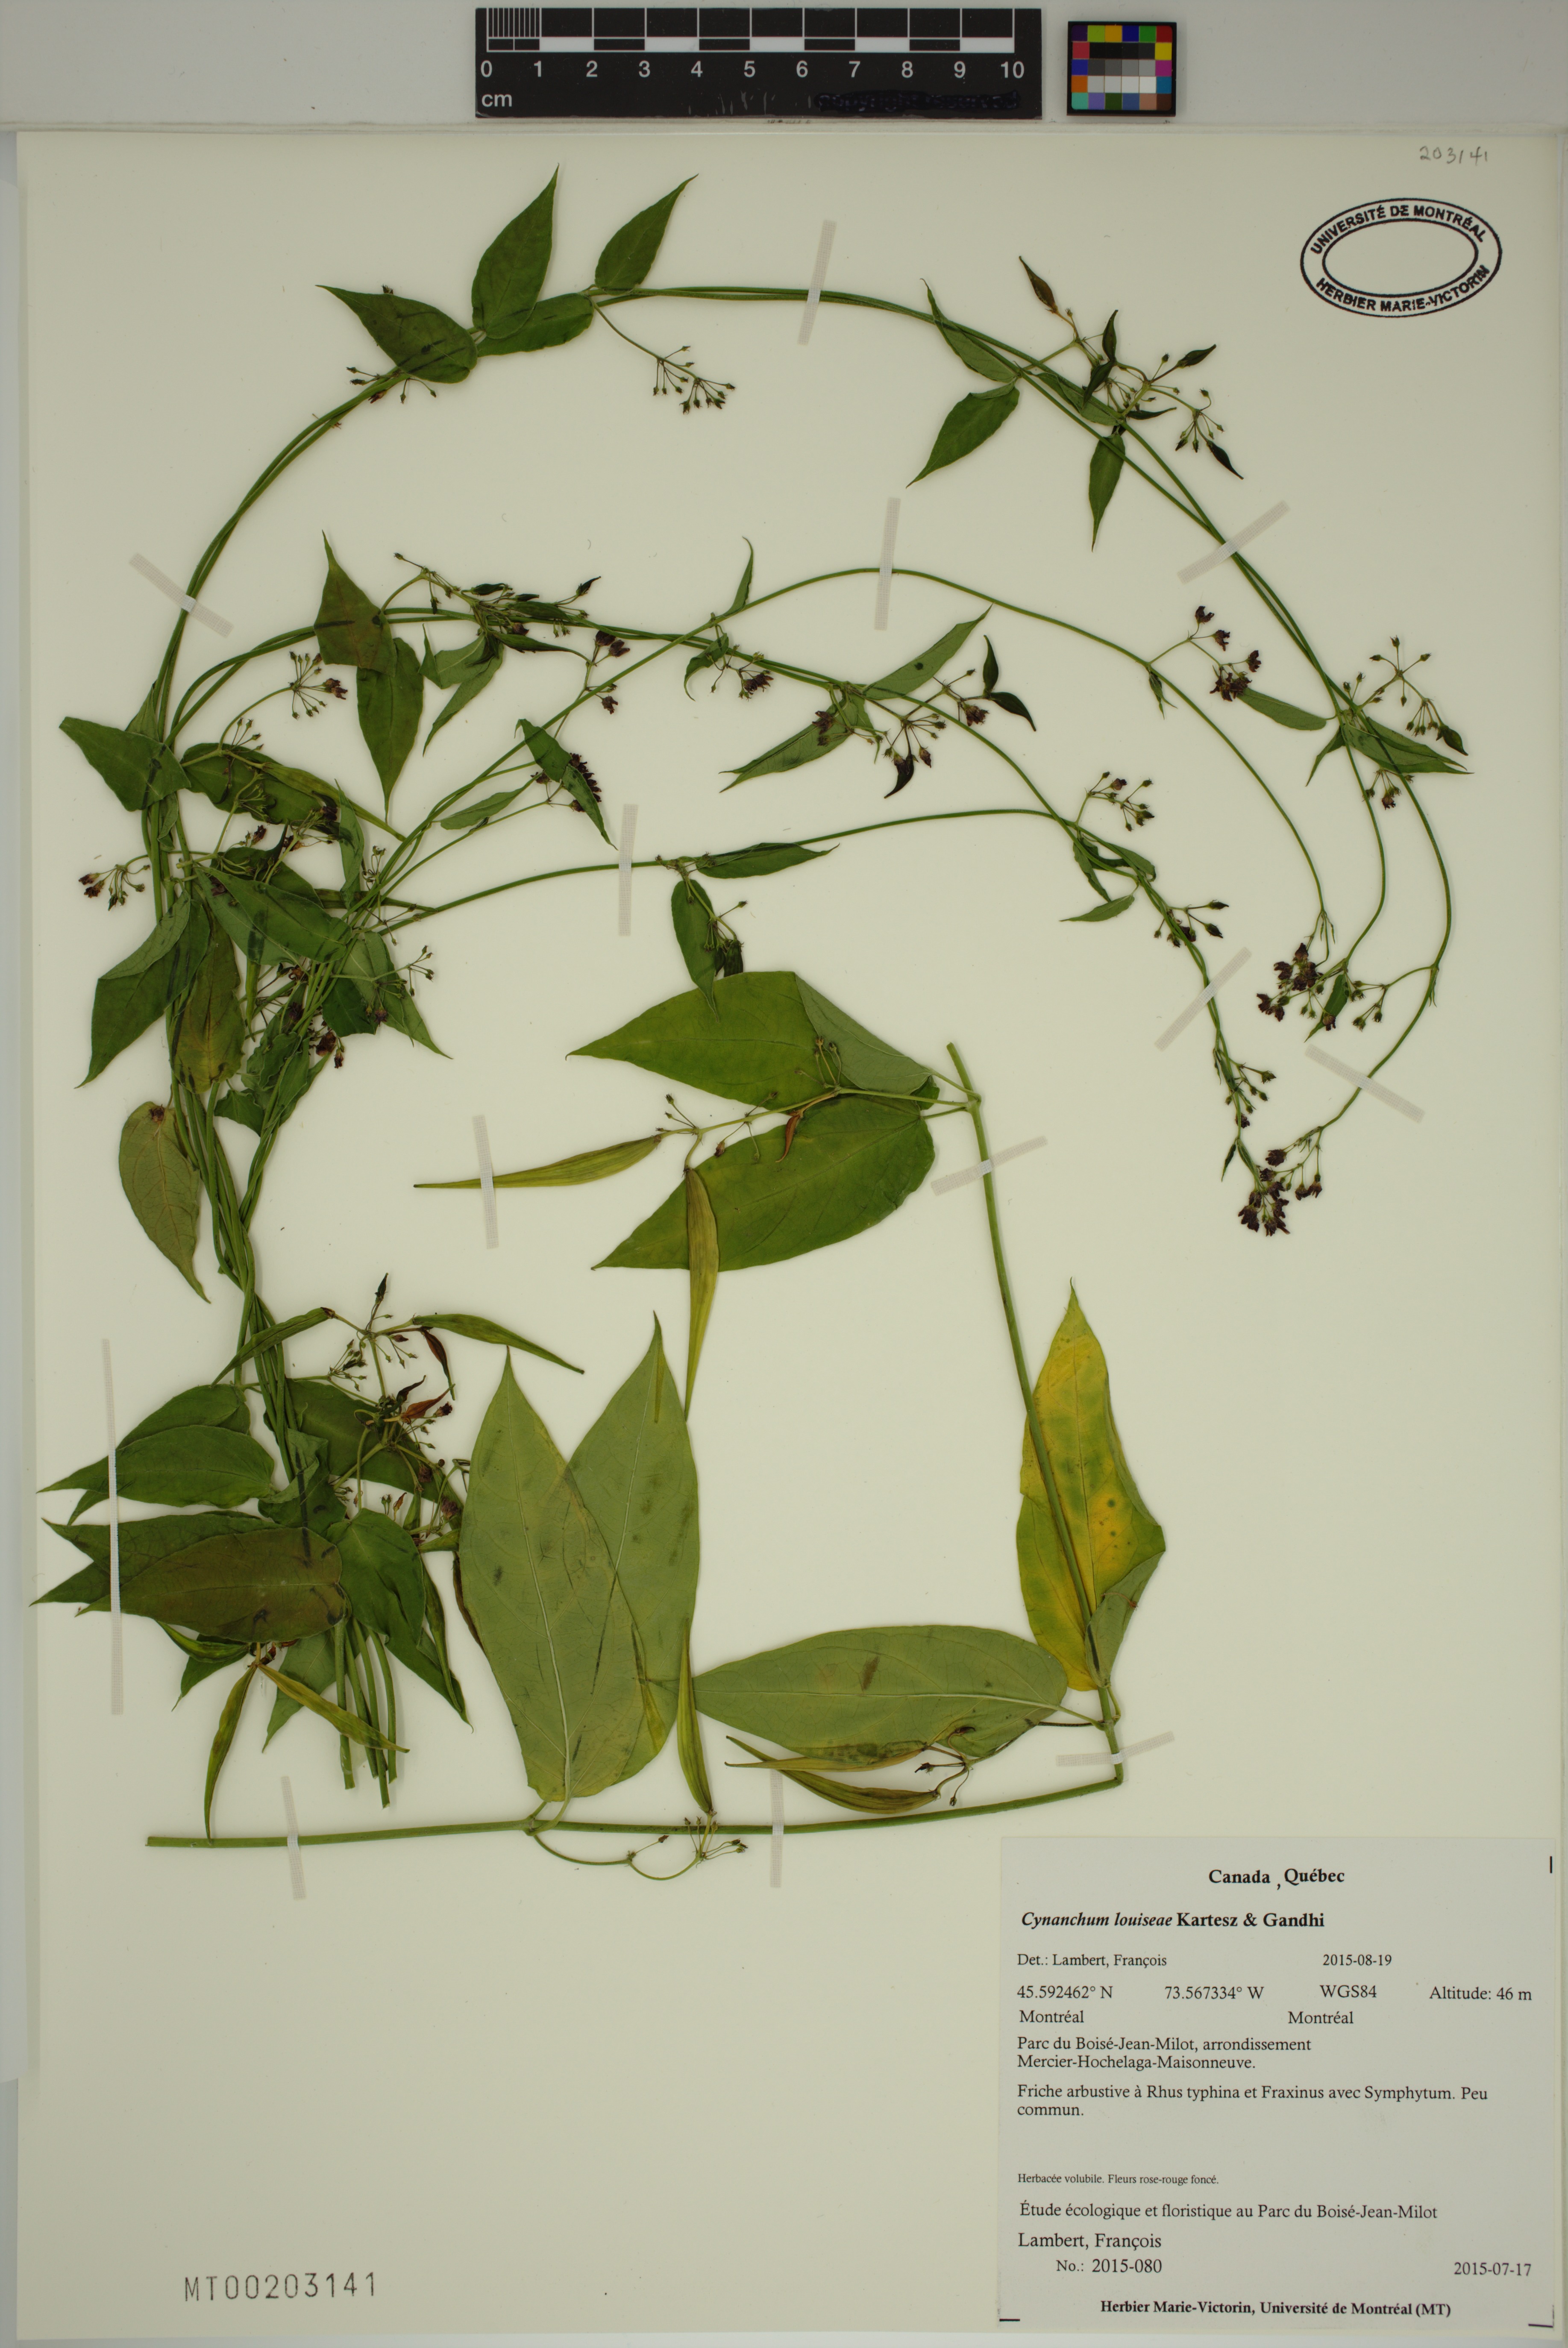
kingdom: Plantae
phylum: Tracheophyta
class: Magnoliopsida
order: Gentianales
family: Apocynaceae
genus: Vincetoxicum
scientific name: Vincetoxicum rossicum
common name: Dog-strangling vine
